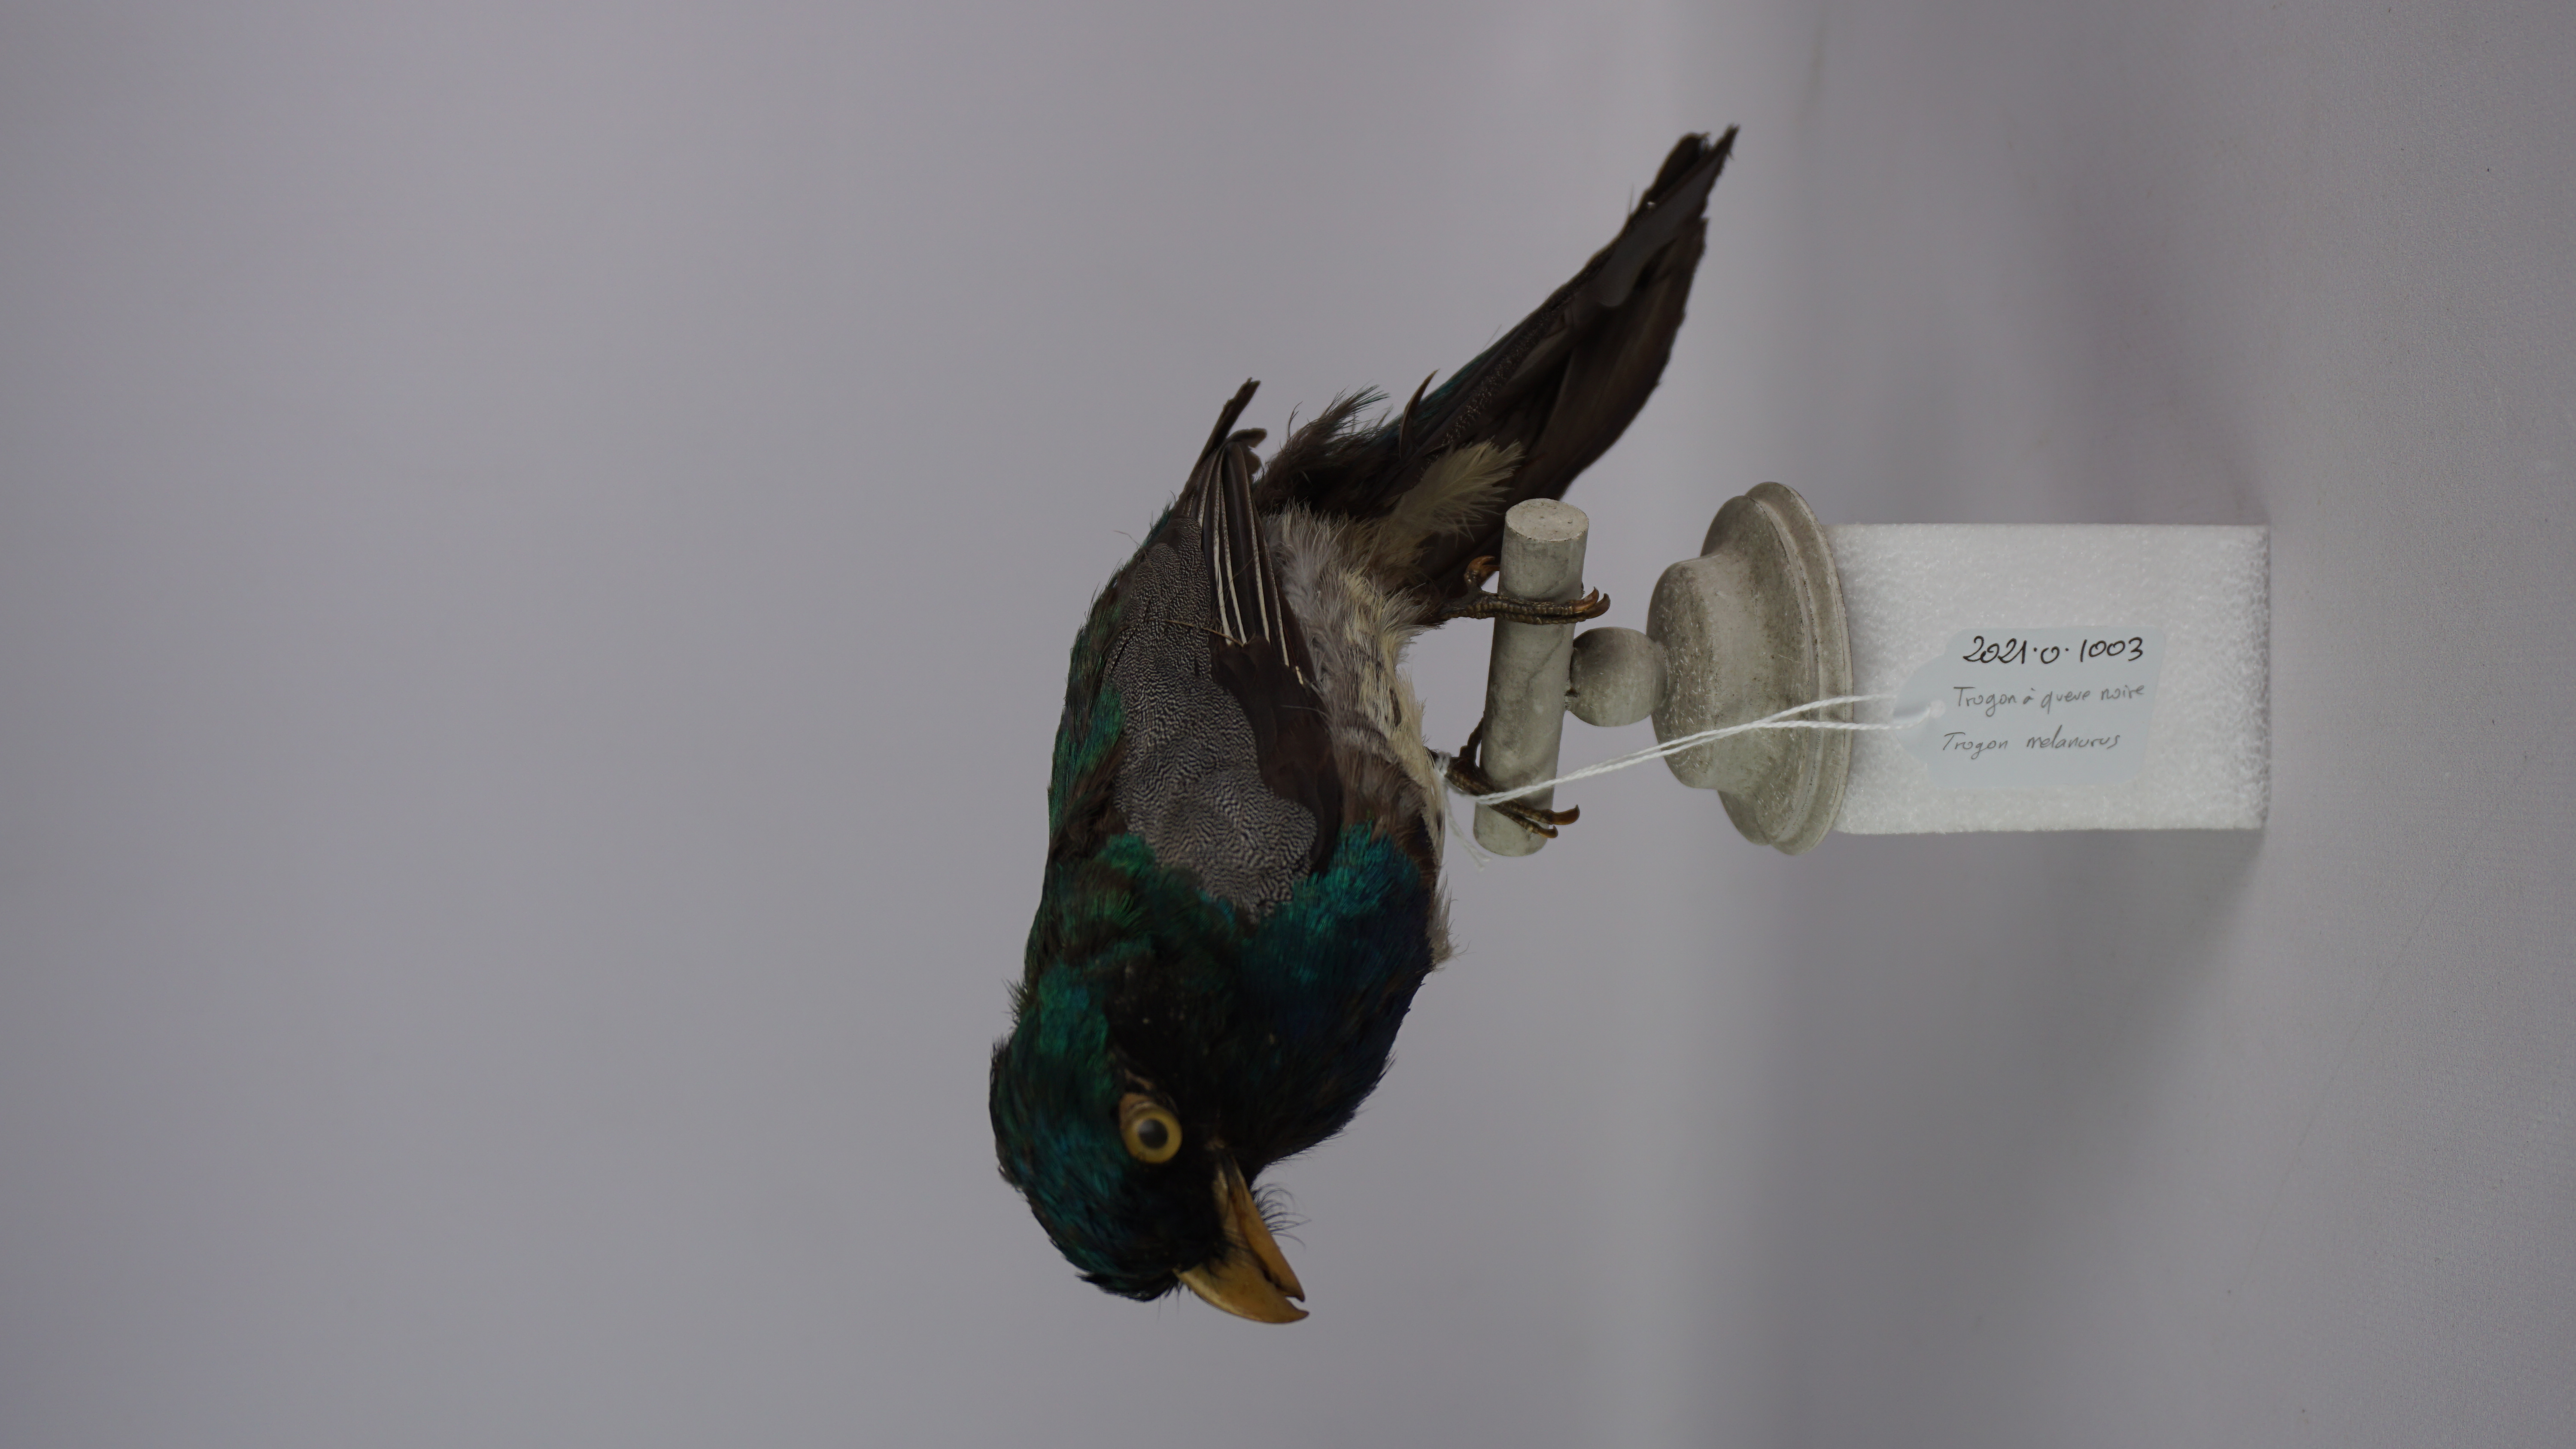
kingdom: Animalia
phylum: Chordata
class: Aves
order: Trogoniformes
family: Trogonidae
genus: Trogon
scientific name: Trogon melanurus
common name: Black-tailed trogon
